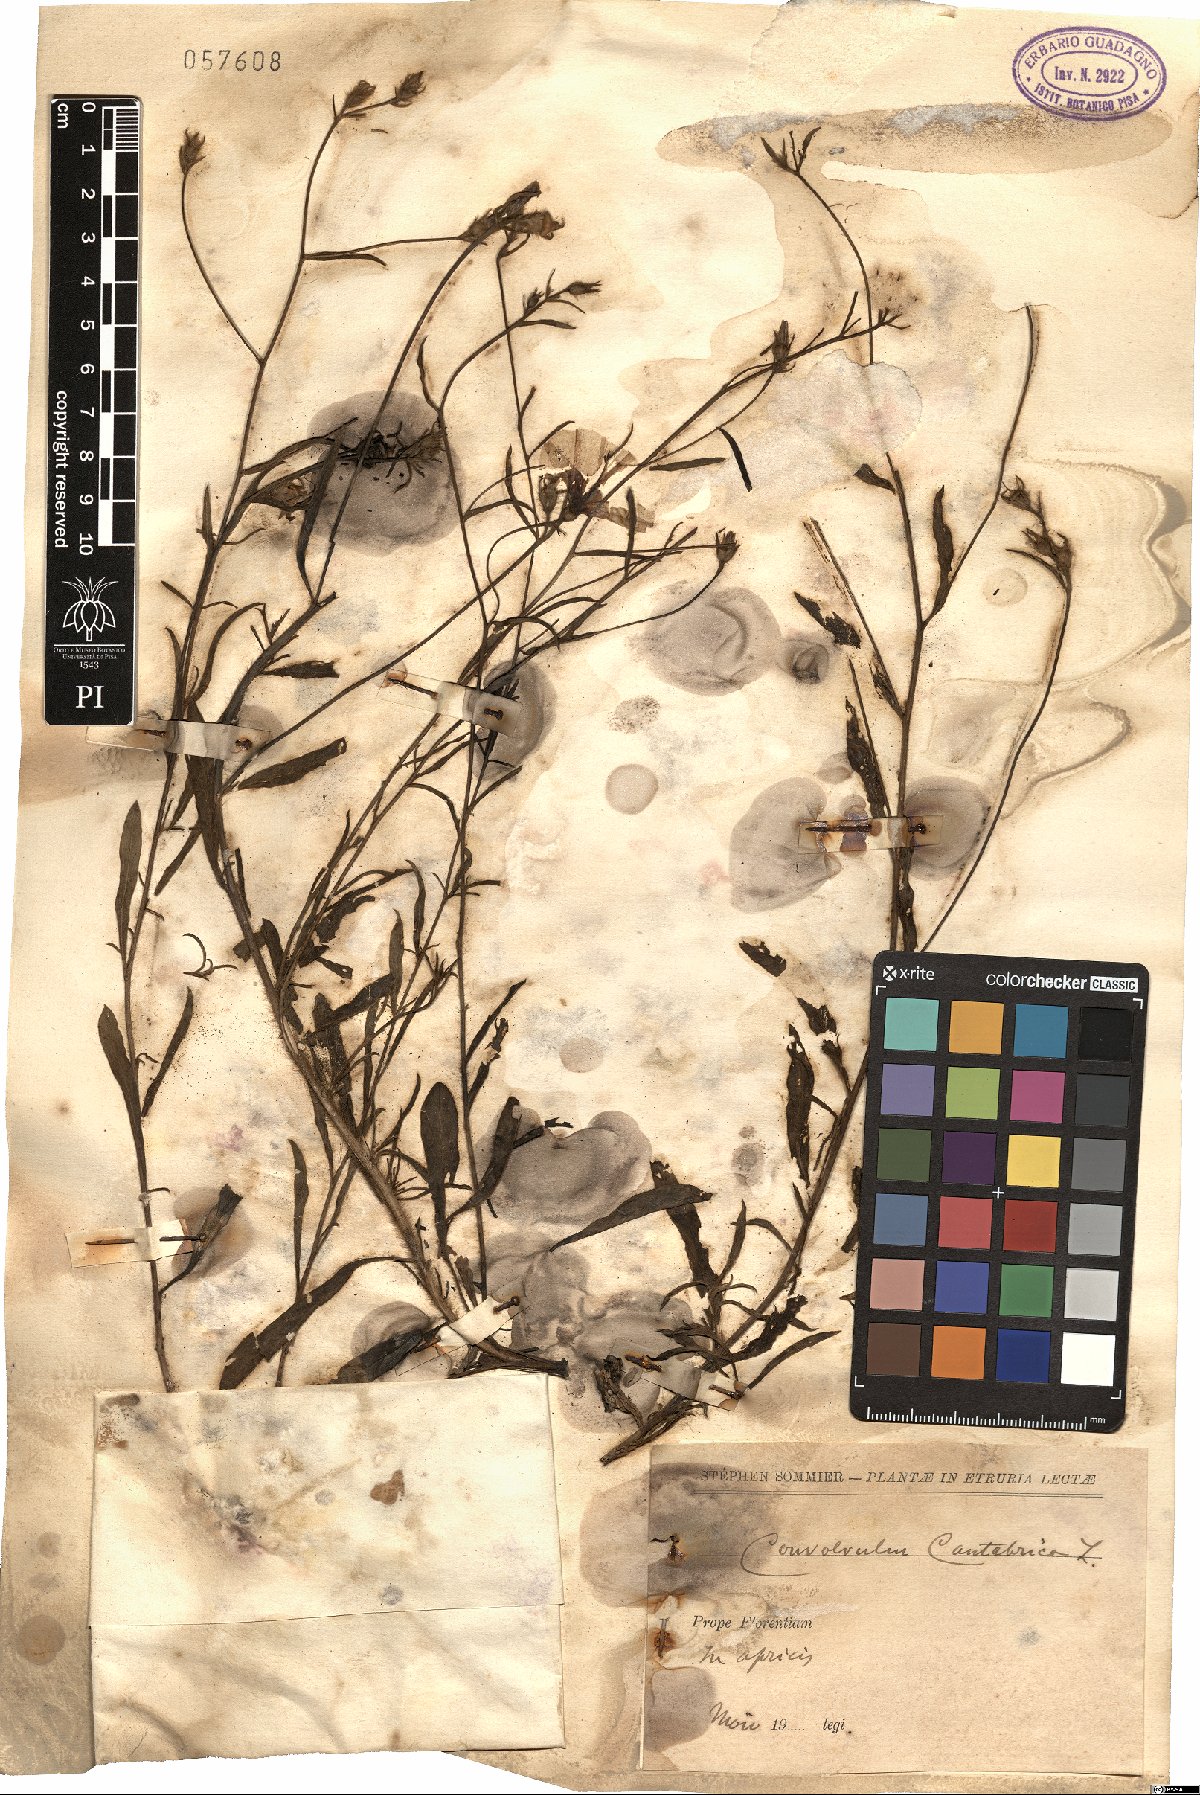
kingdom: Plantae
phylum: Tracheophyta
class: Magnoliopsida
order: Solanales
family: Convolvulaceae
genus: Convolvulus
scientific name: Convolvulus cantabrica
